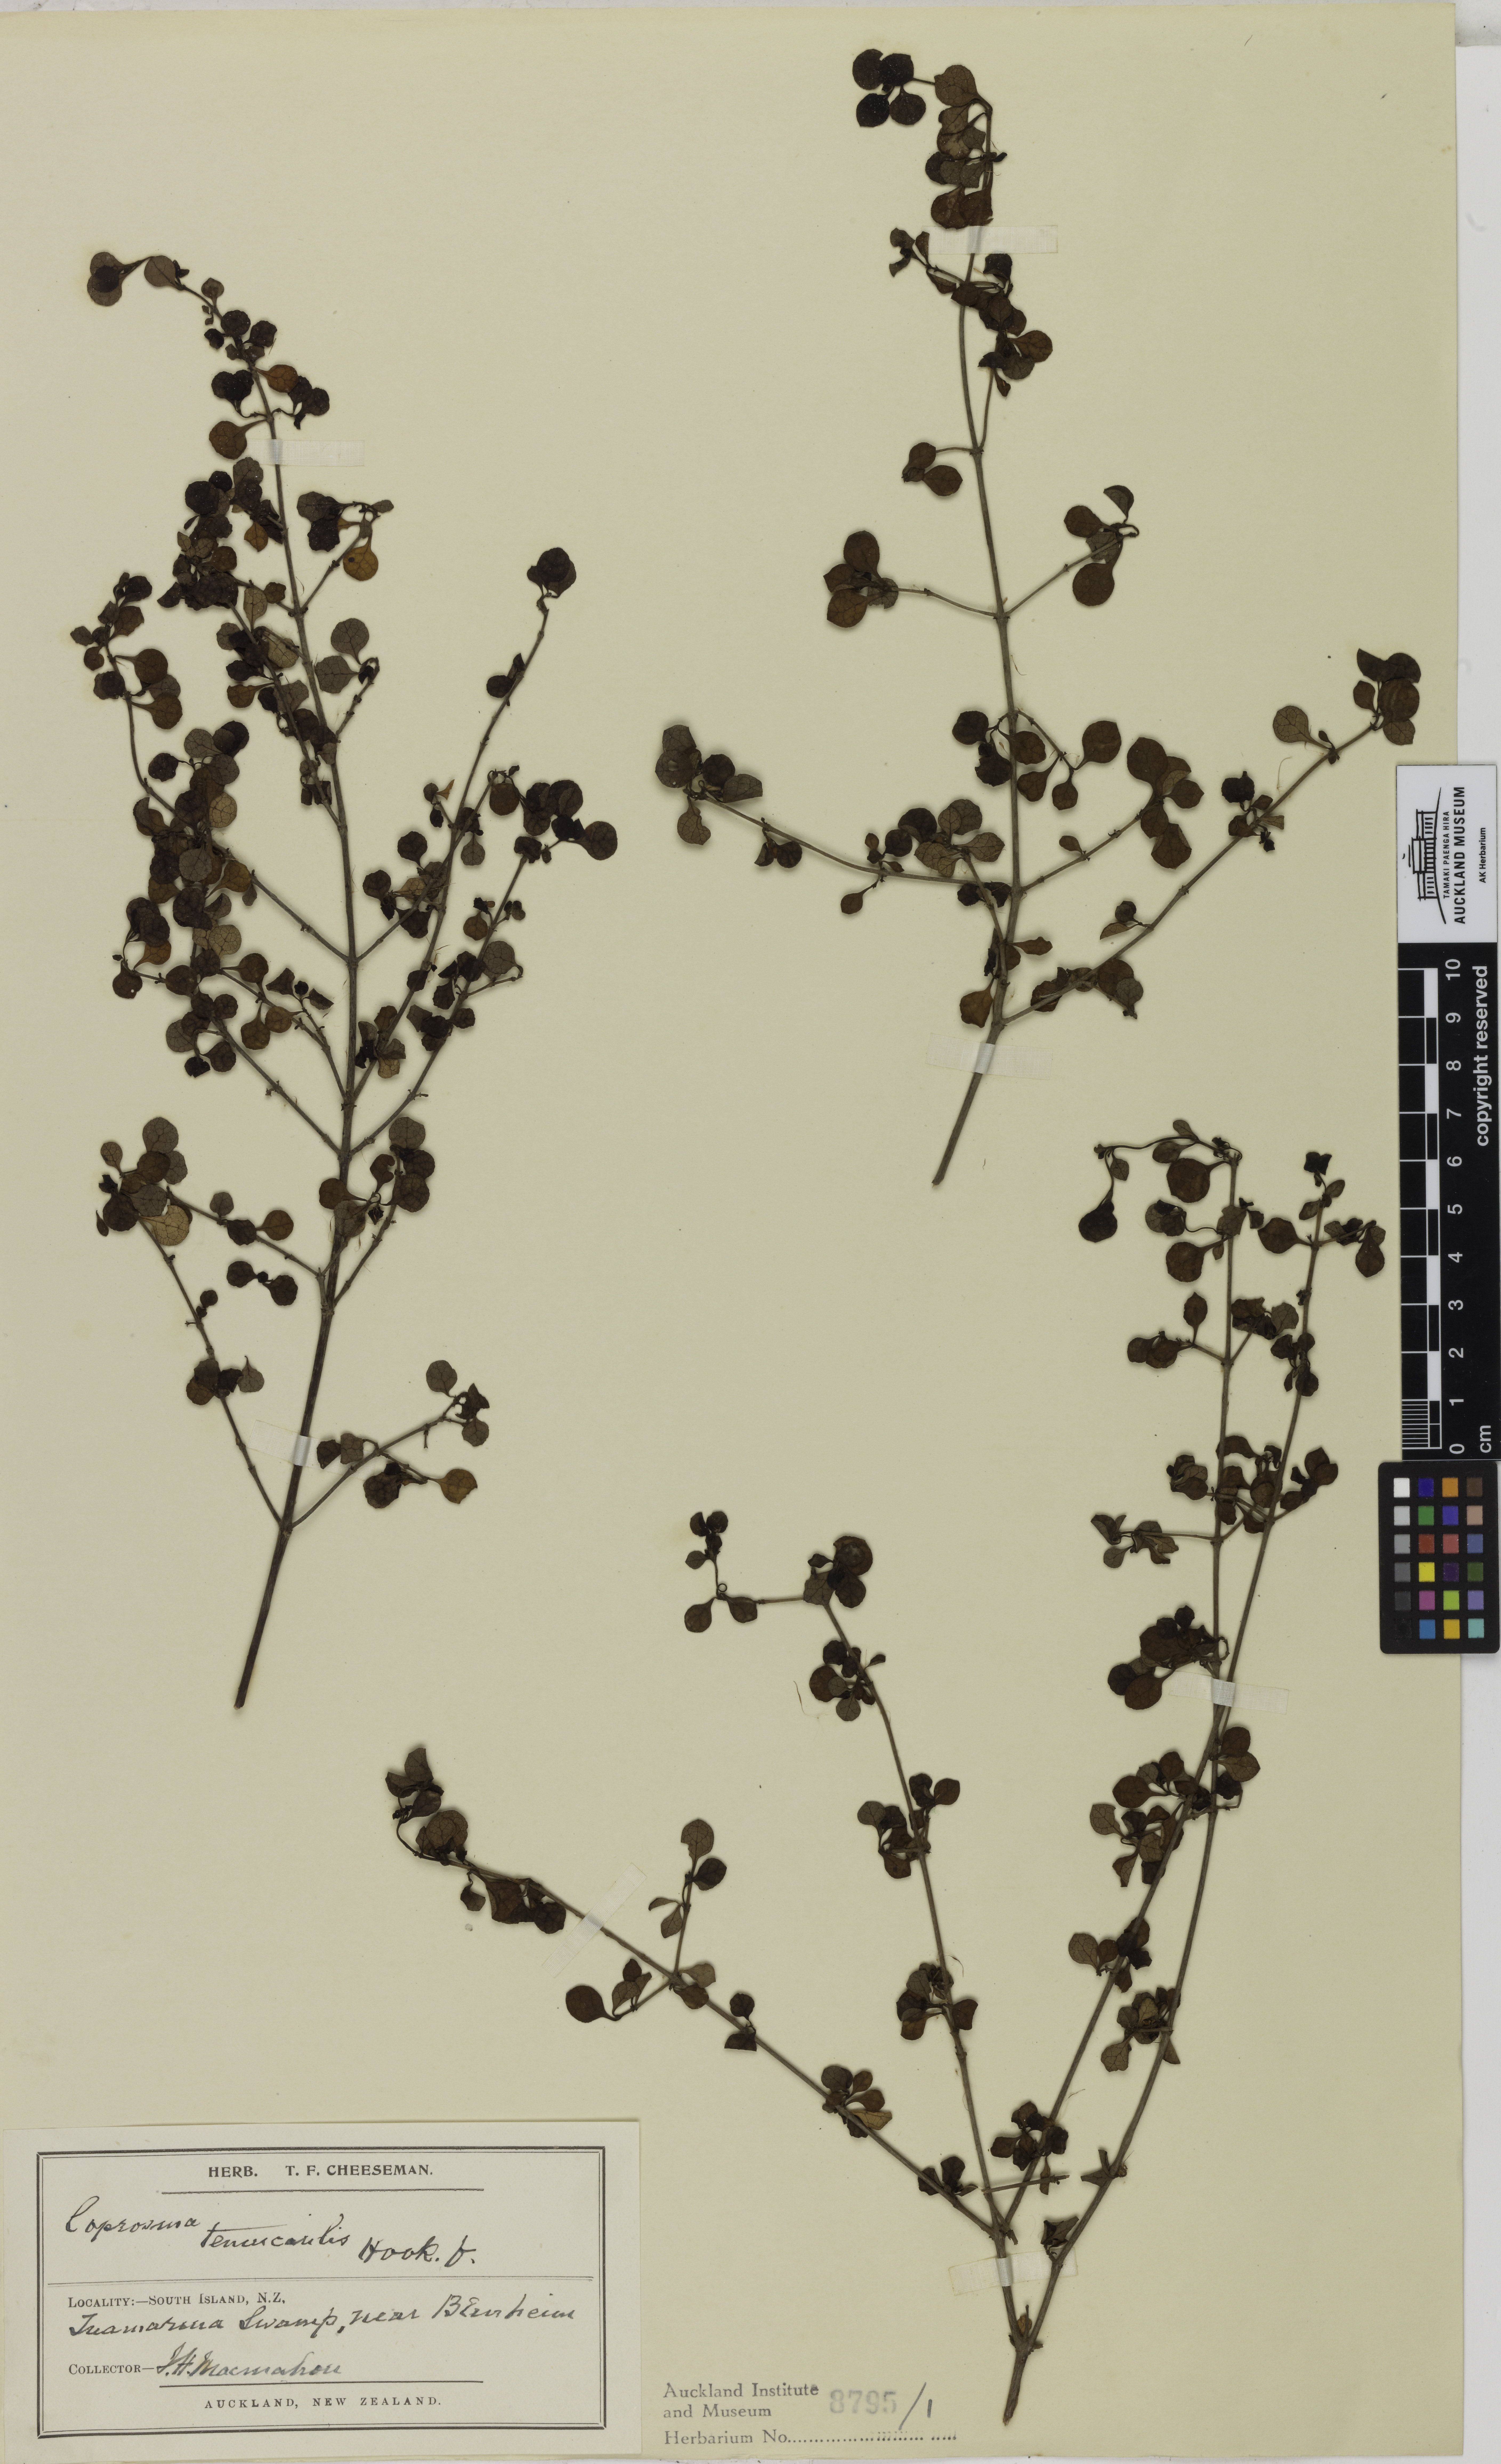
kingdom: Plantae
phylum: Tracheophyta
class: Magnoliopsida
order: Gentianales
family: Rubiaceae
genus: Coprosma
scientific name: Coprosma tenuicaulis
